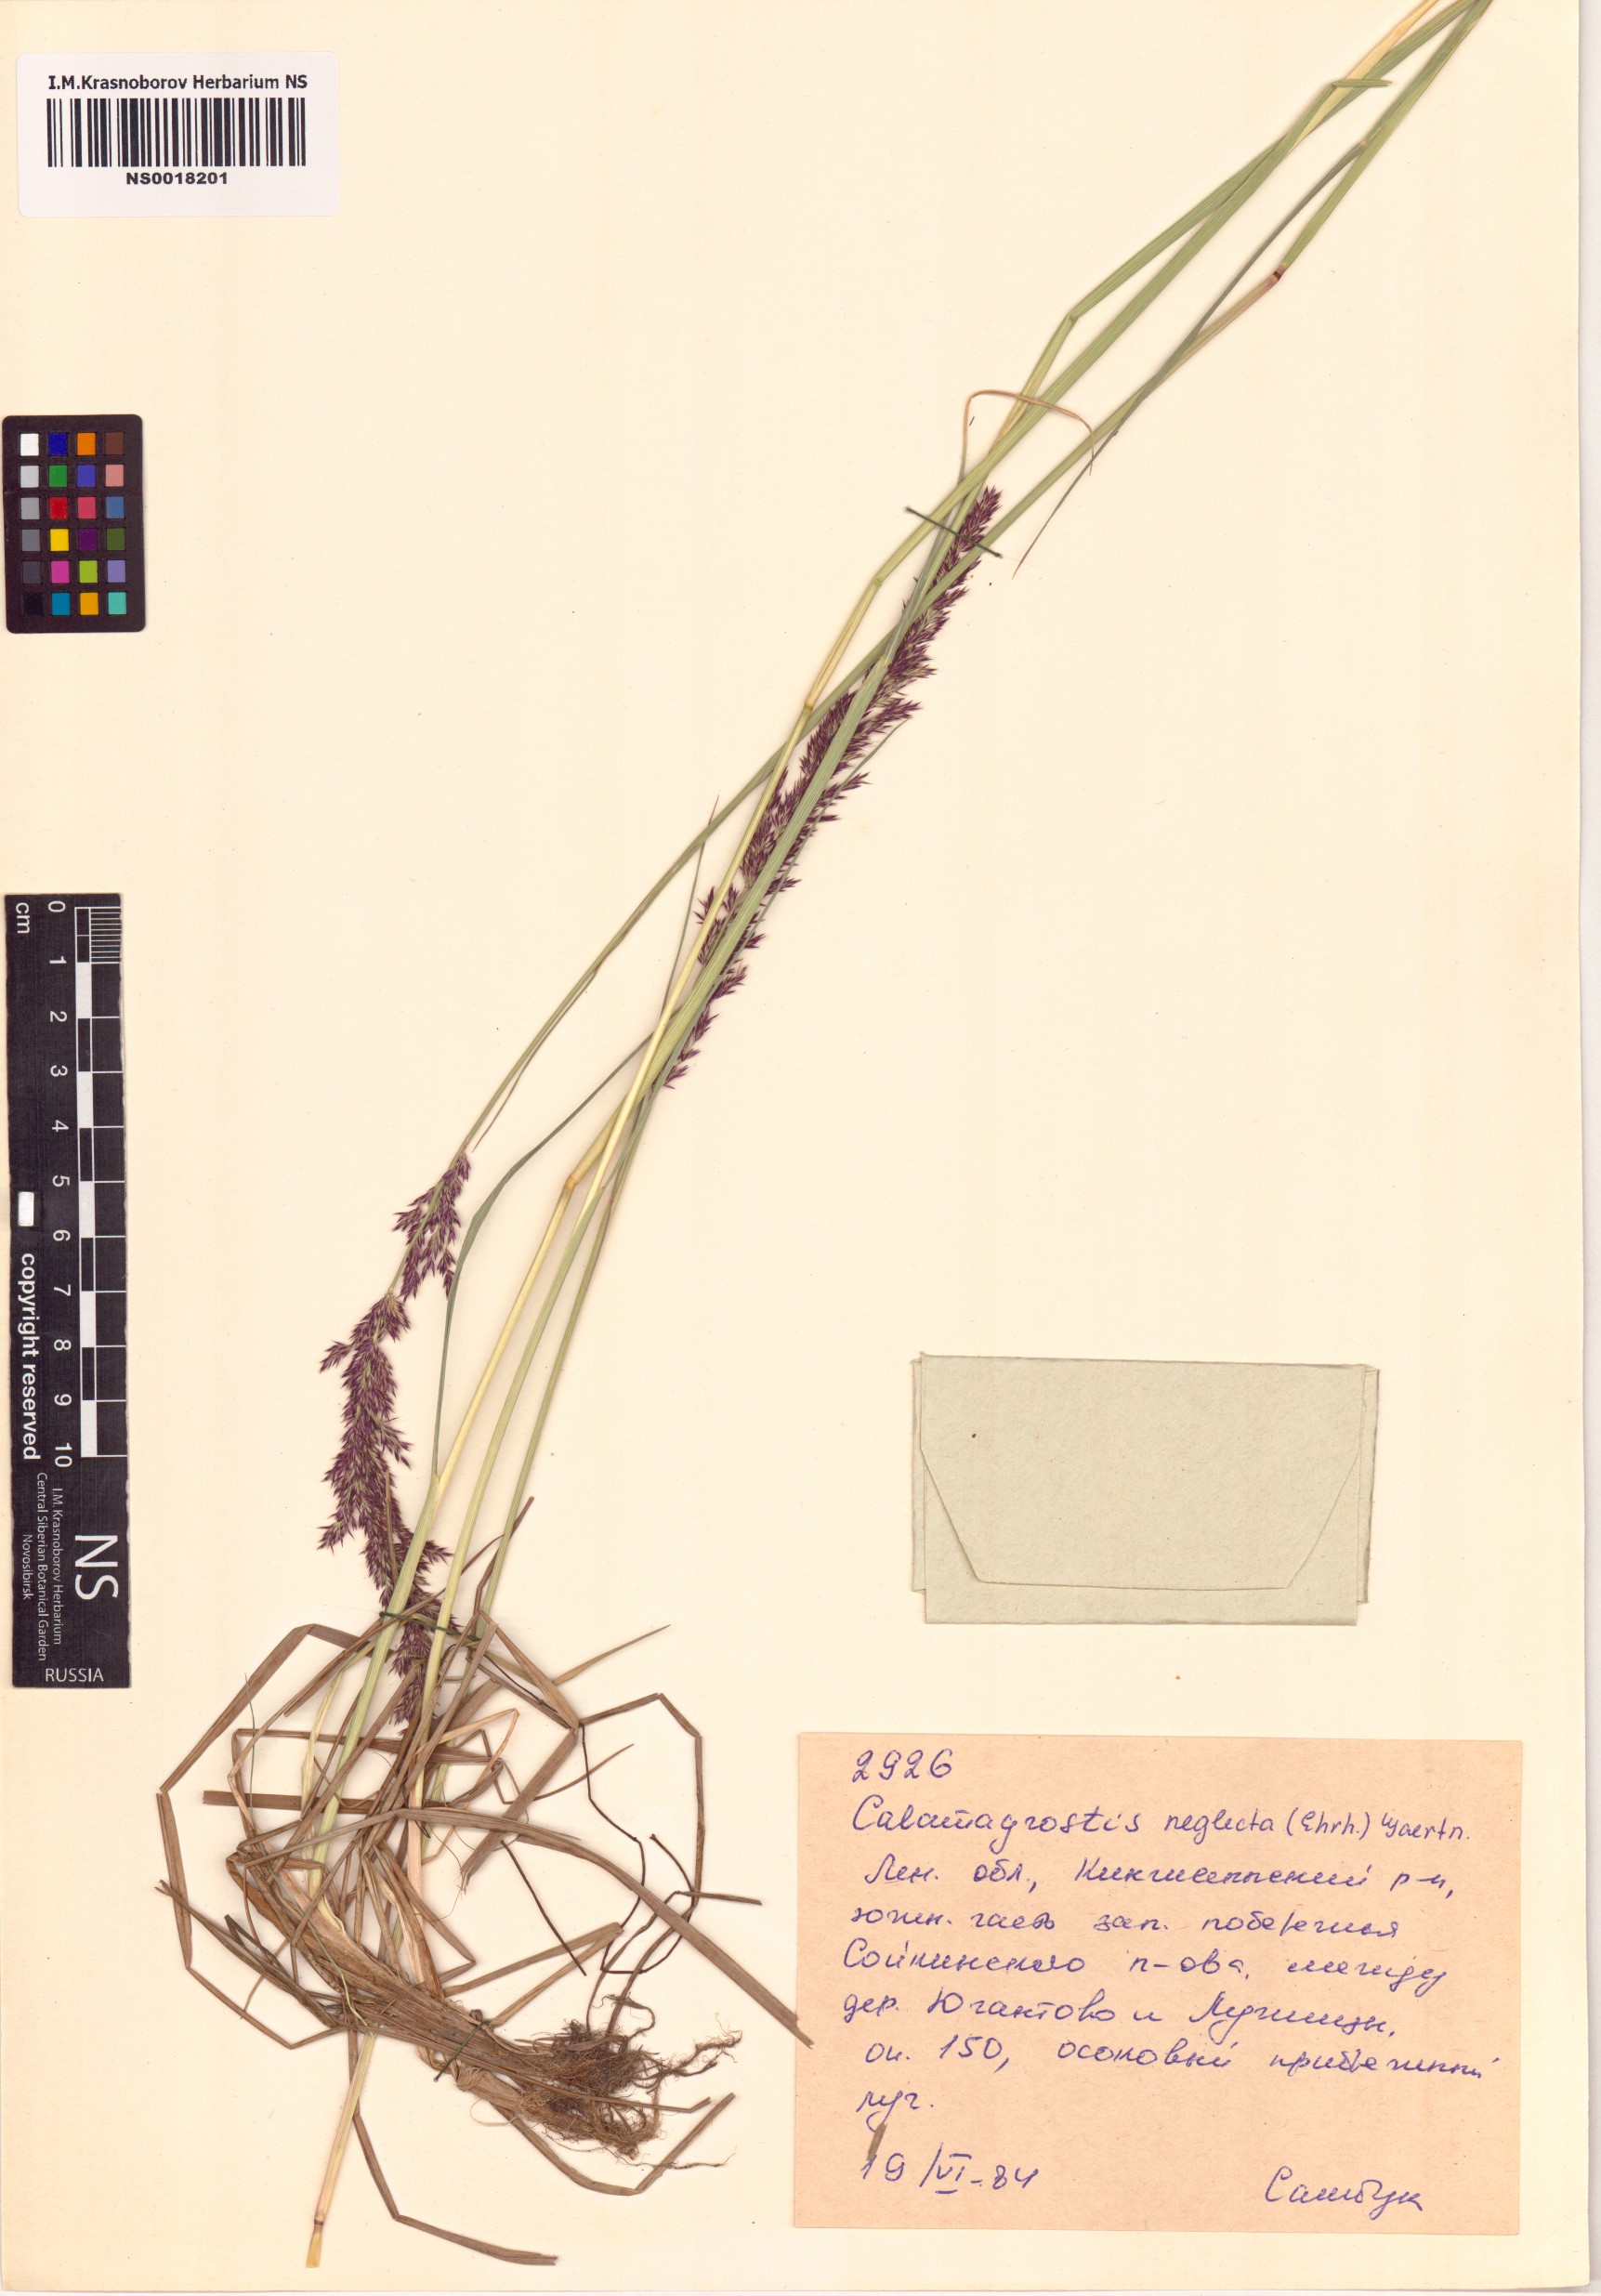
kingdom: Plantae
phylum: Tracheophyta
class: Liliopsida
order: Poales
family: Poaceae
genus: Achnatherum
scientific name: Achnatherum calamagrostis
